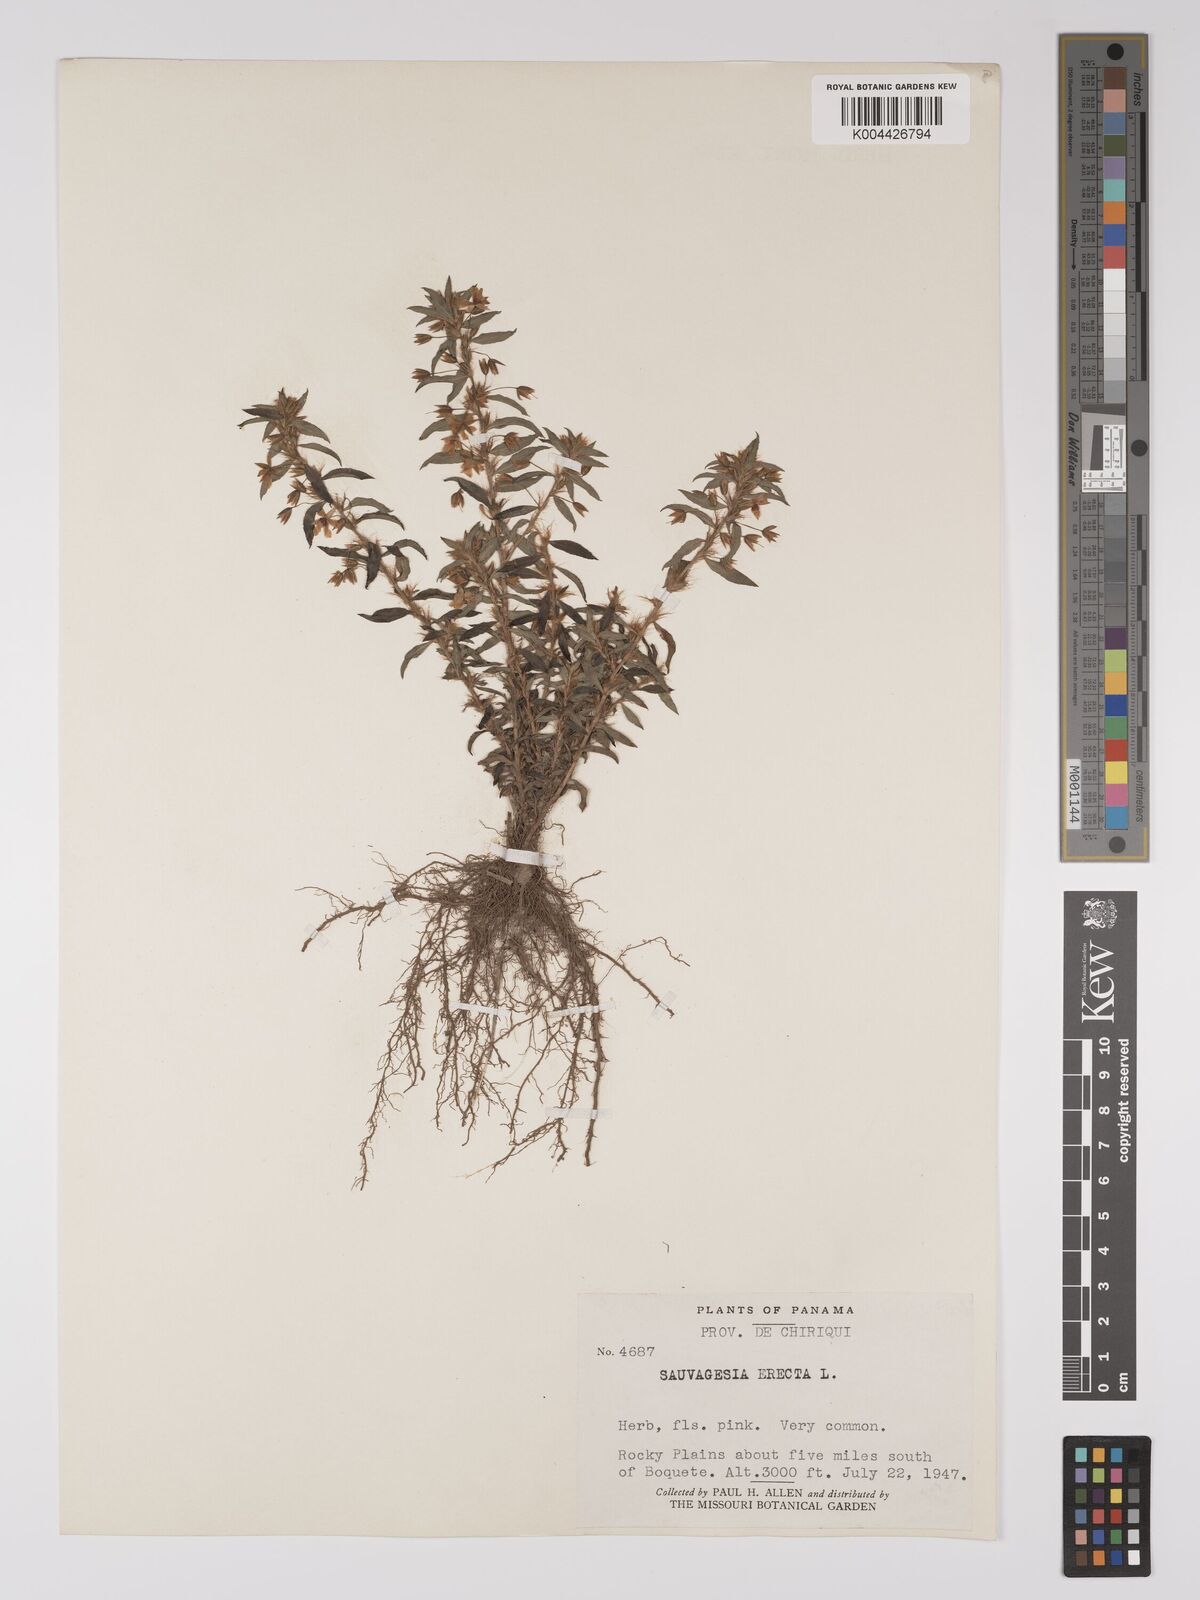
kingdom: Plantae
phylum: Tracheophyta
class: Magnoliopsida
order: Malpighiales
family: Ochnaceae
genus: Sauvagesia
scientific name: Sauvagesia erecta
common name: Creole tea
